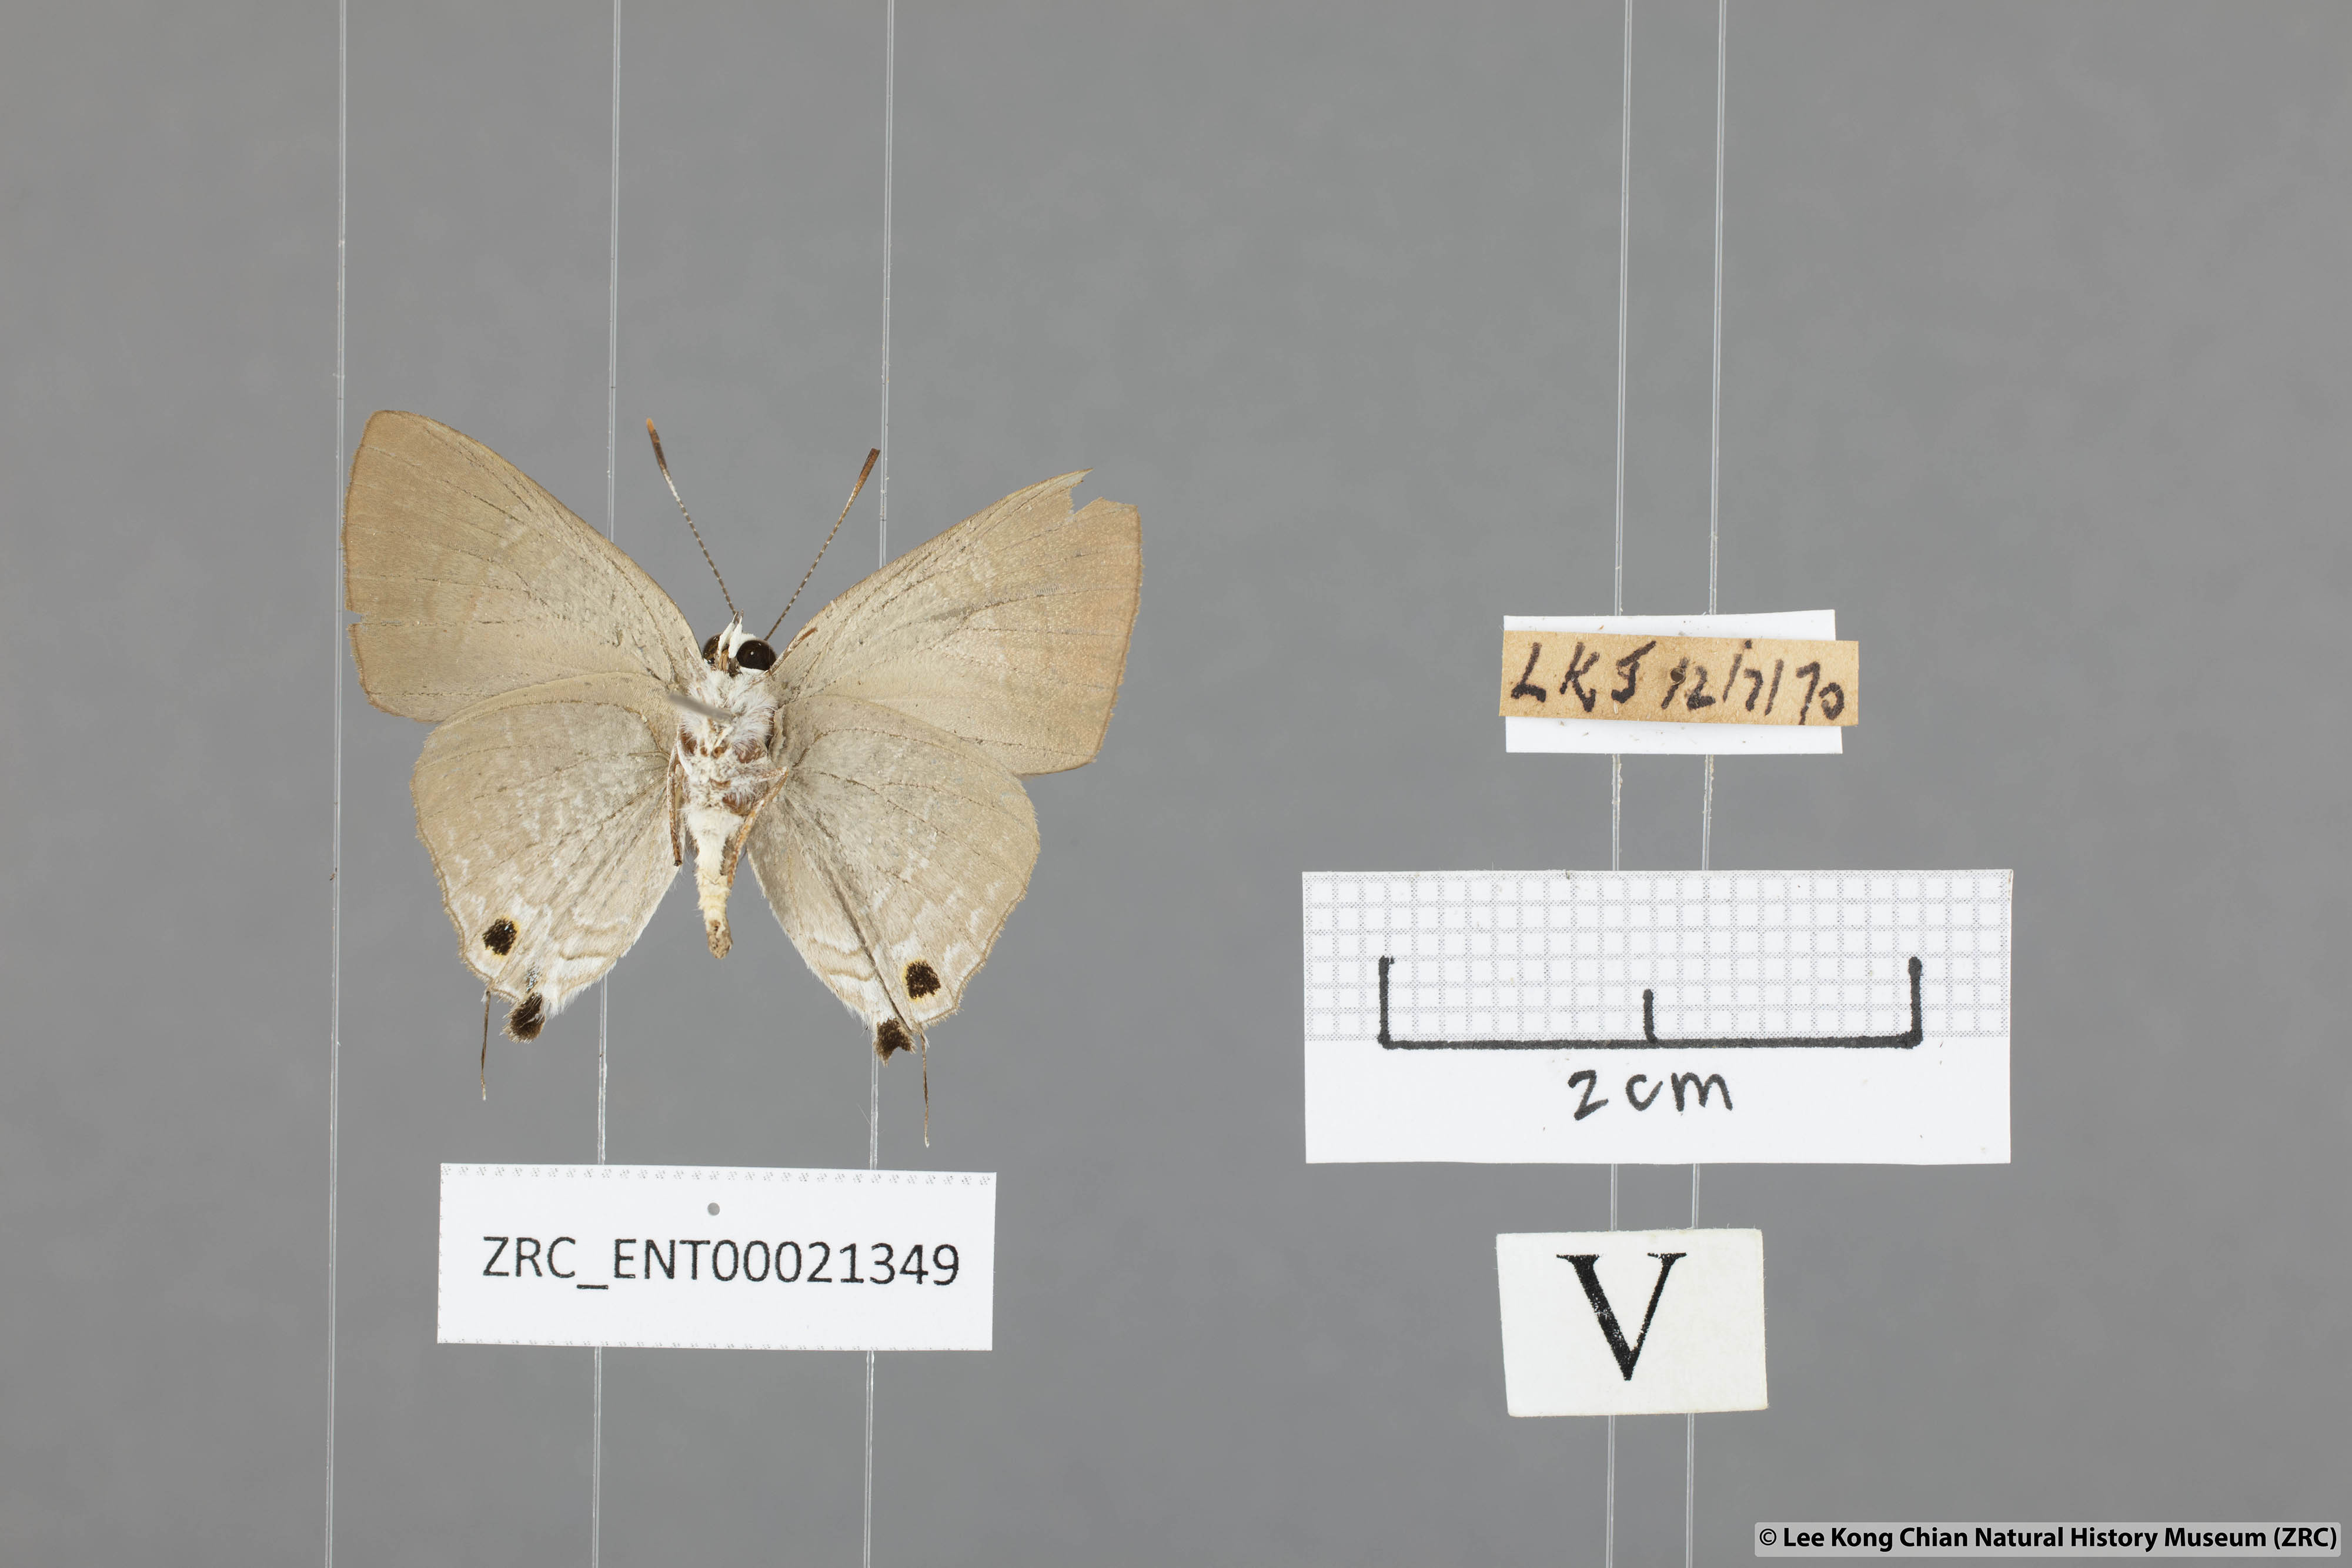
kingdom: Animalia
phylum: Arthropoda
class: Insecta
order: Lepidoptera
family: Lycaenidae
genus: Deudorix
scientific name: Deudorix staudingeri
